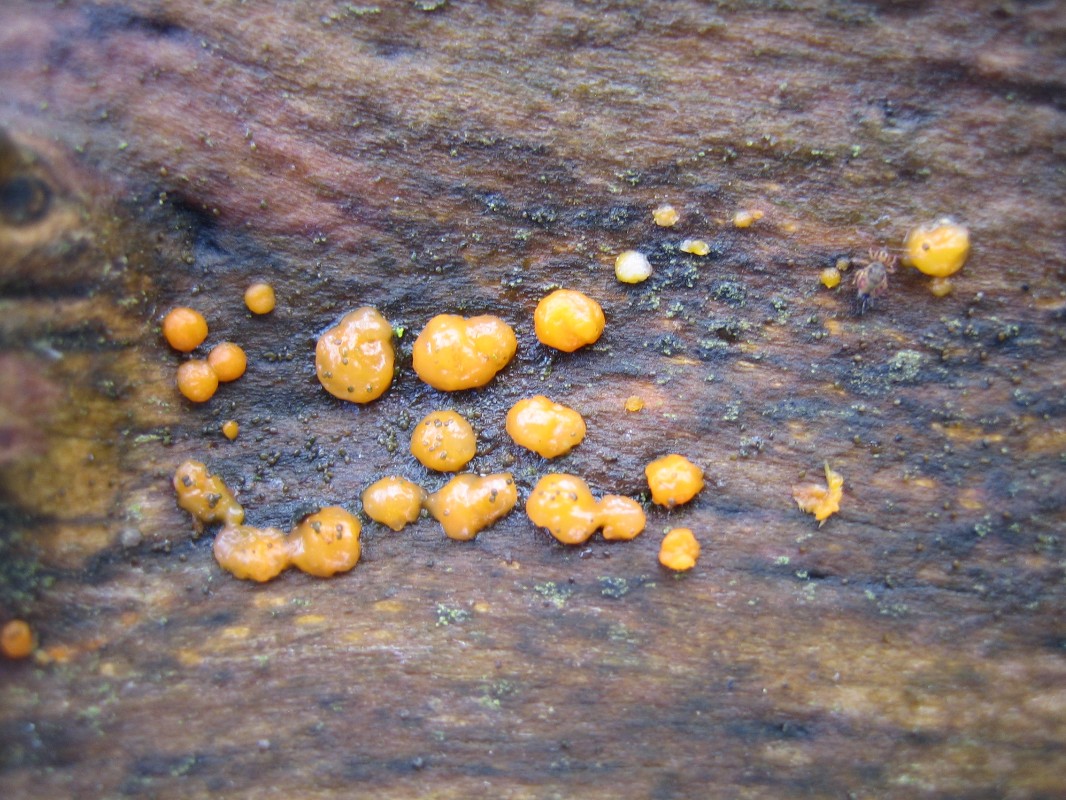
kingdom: Fungi
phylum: Basidiomycota
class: Dacrymycetes
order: Dacrymycetales
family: Dacrymycetaceae
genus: Dacrymyces
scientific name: Dacrymyces stillatus
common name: almindelig tåresvamp
